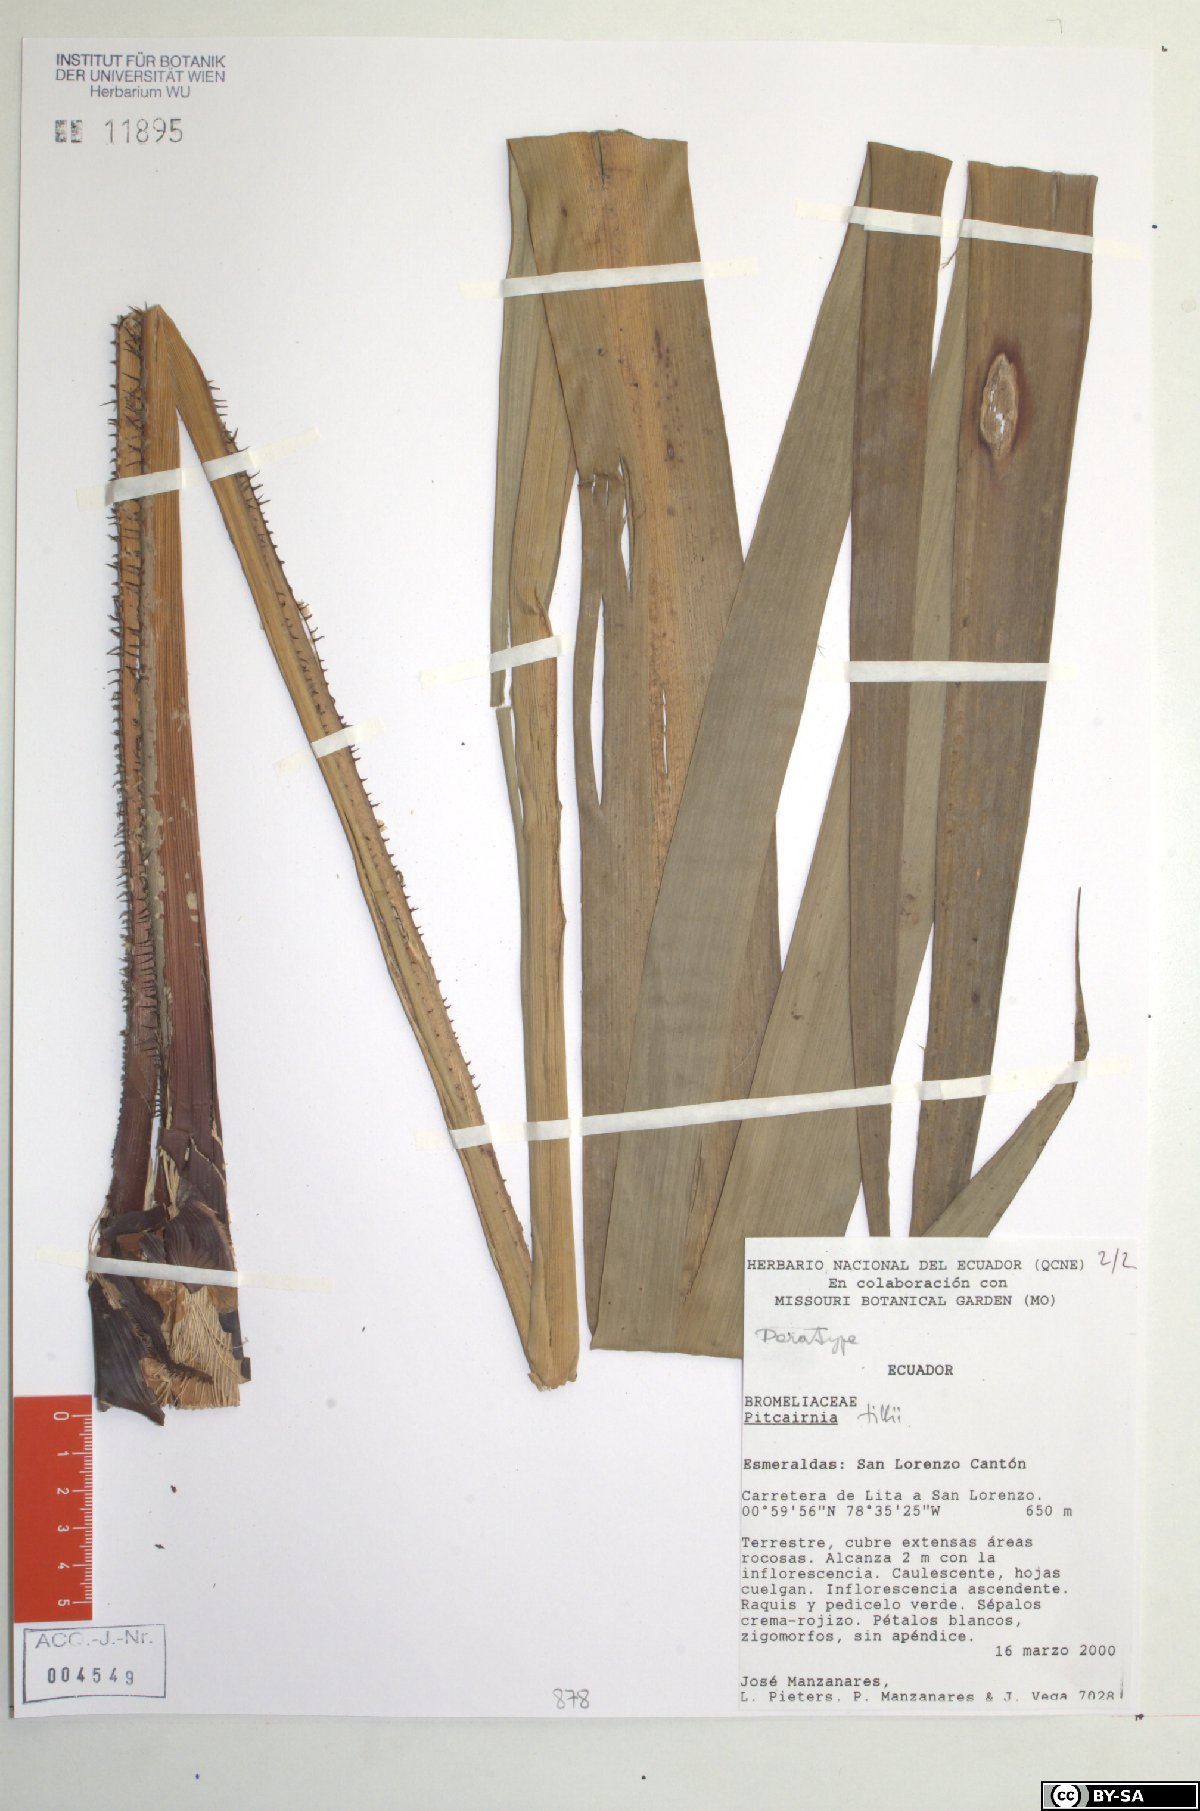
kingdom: Plantae
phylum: Tracheophyta
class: Liliopsida
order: Poales
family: Bromeliaceae
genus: Pitcairnia
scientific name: Pitcairnia tillii
